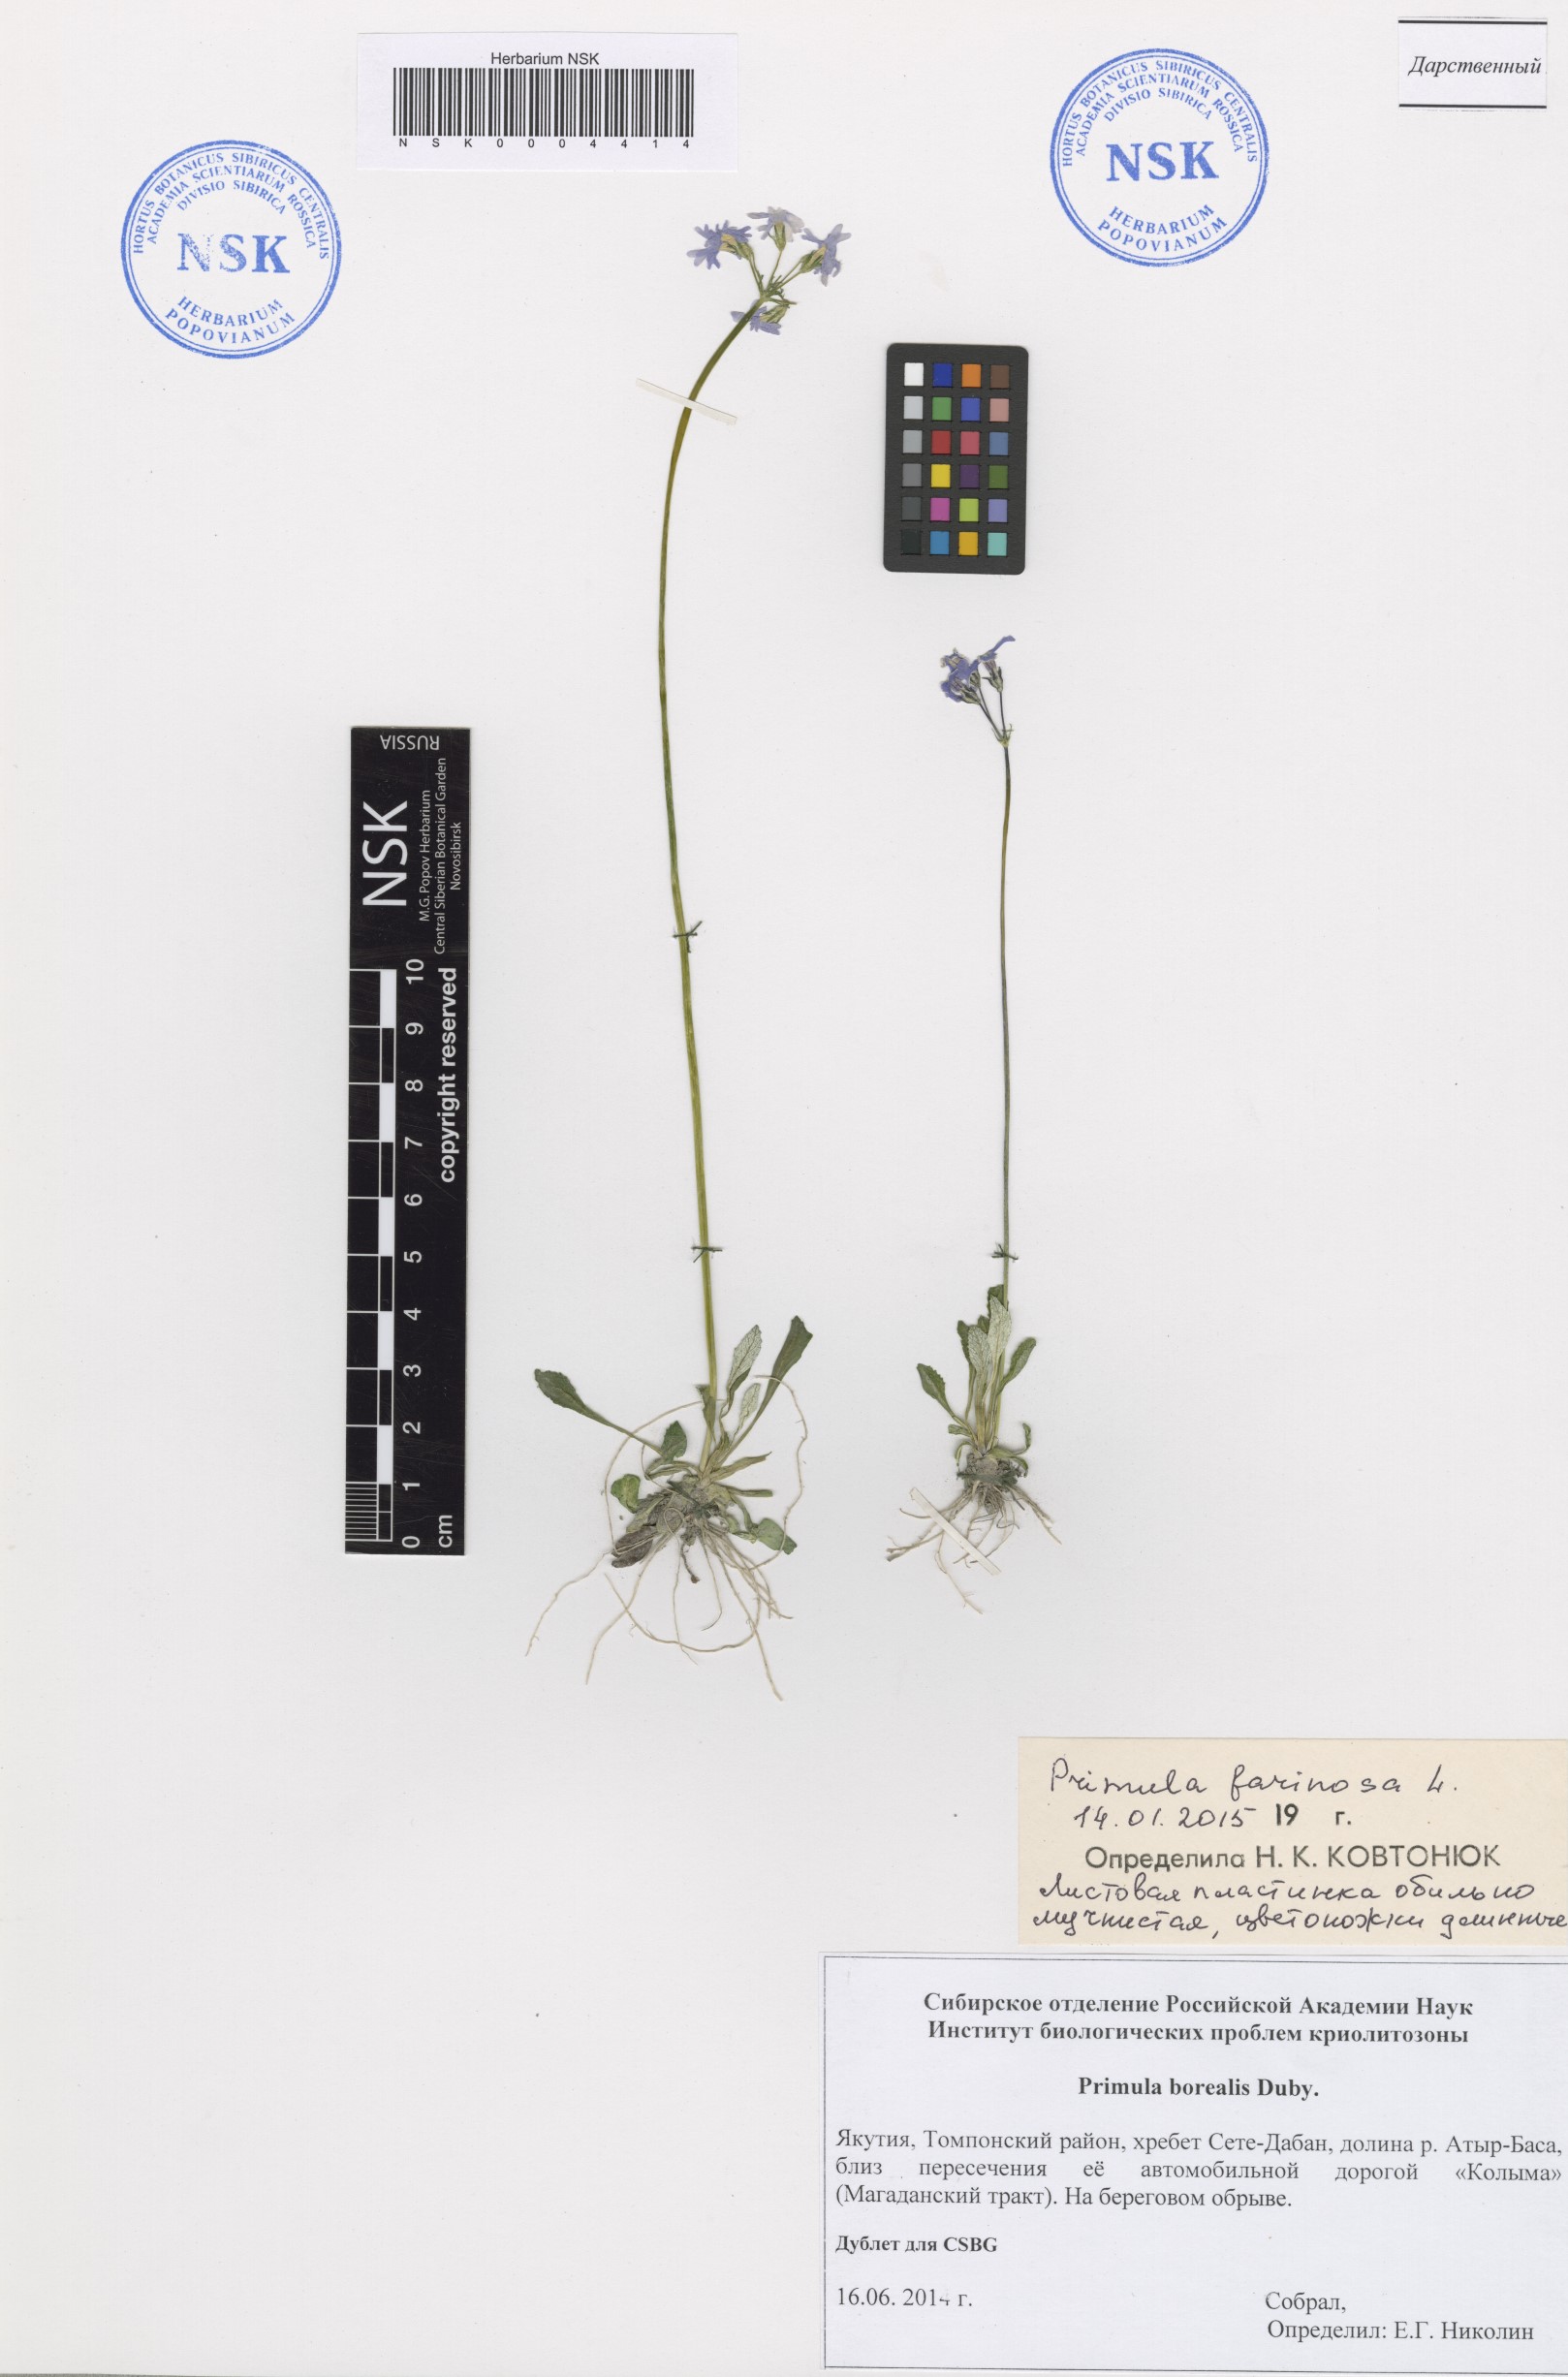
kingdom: Plantae
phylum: Tracheophyta
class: Magnoliopsida
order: Ericales
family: Primulaceae
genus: Primula
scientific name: Primula farinosa
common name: Bird's-eye primrose
